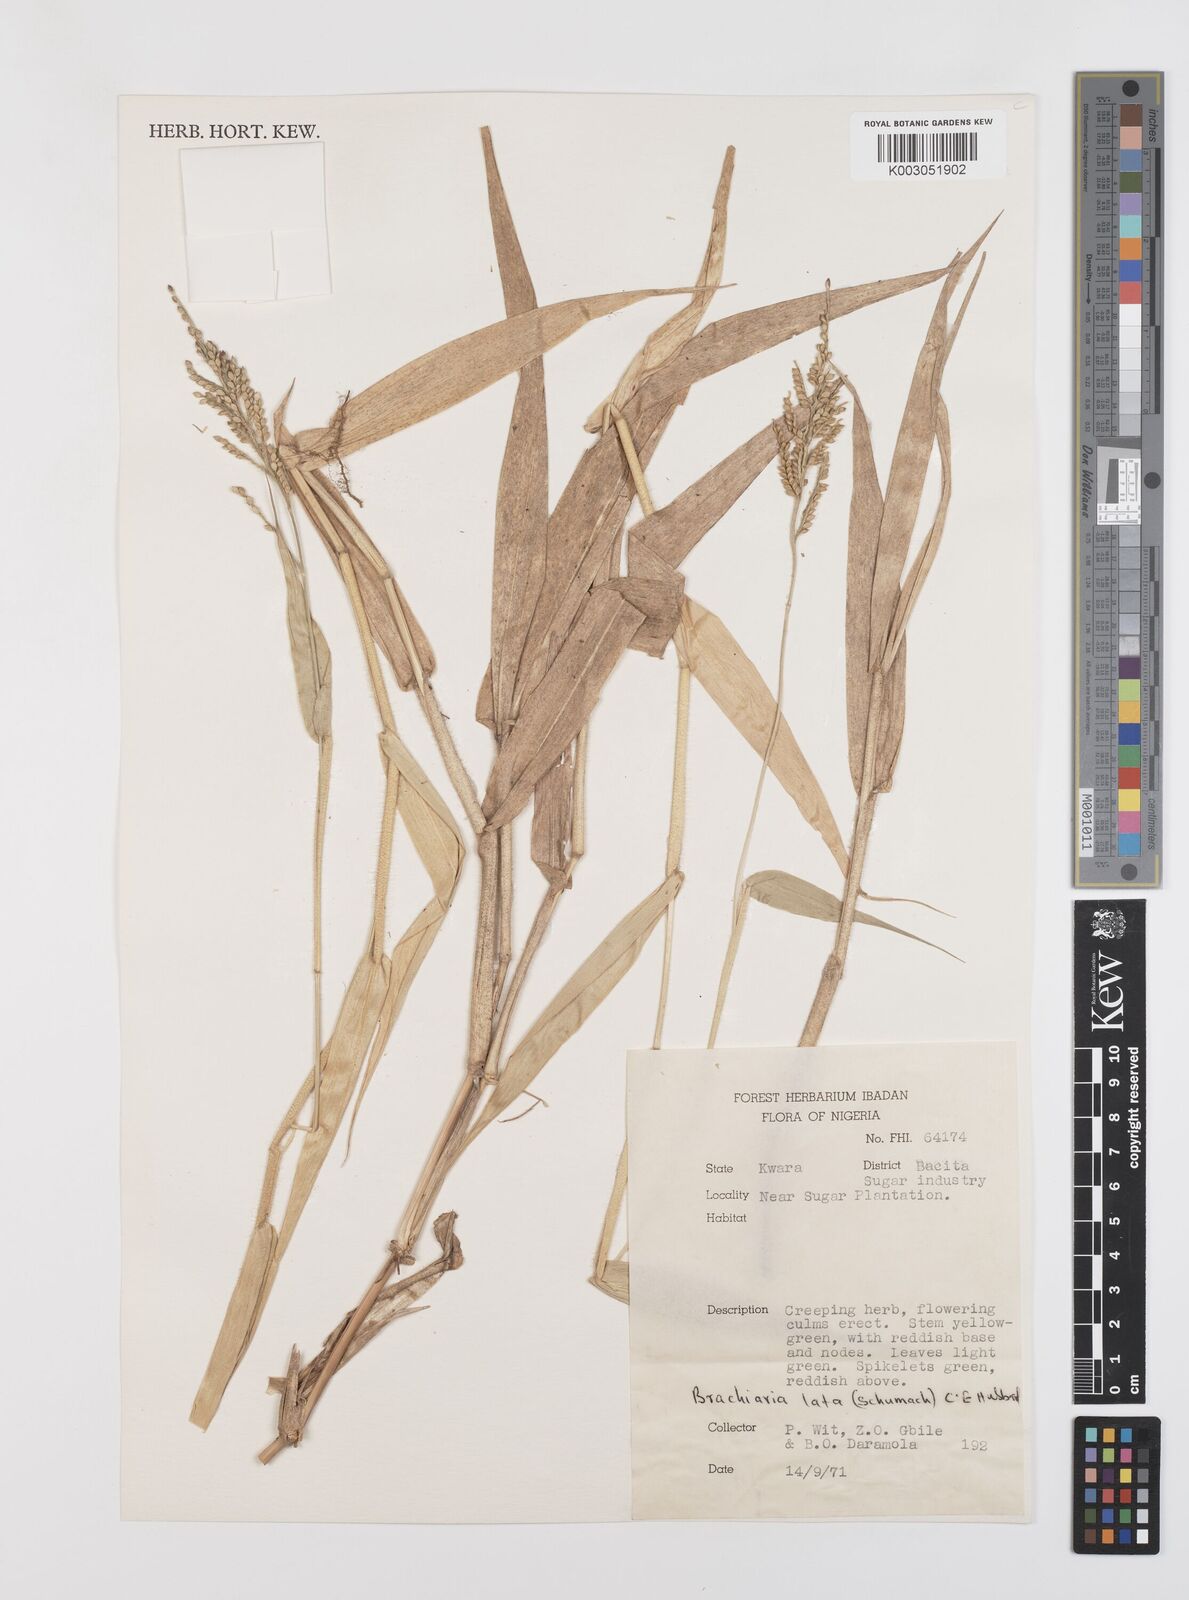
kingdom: Plantae
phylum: Tracheophyta
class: Liliopsida
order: Poales
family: Poaceae
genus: Urochloa
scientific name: Urochloa lata
